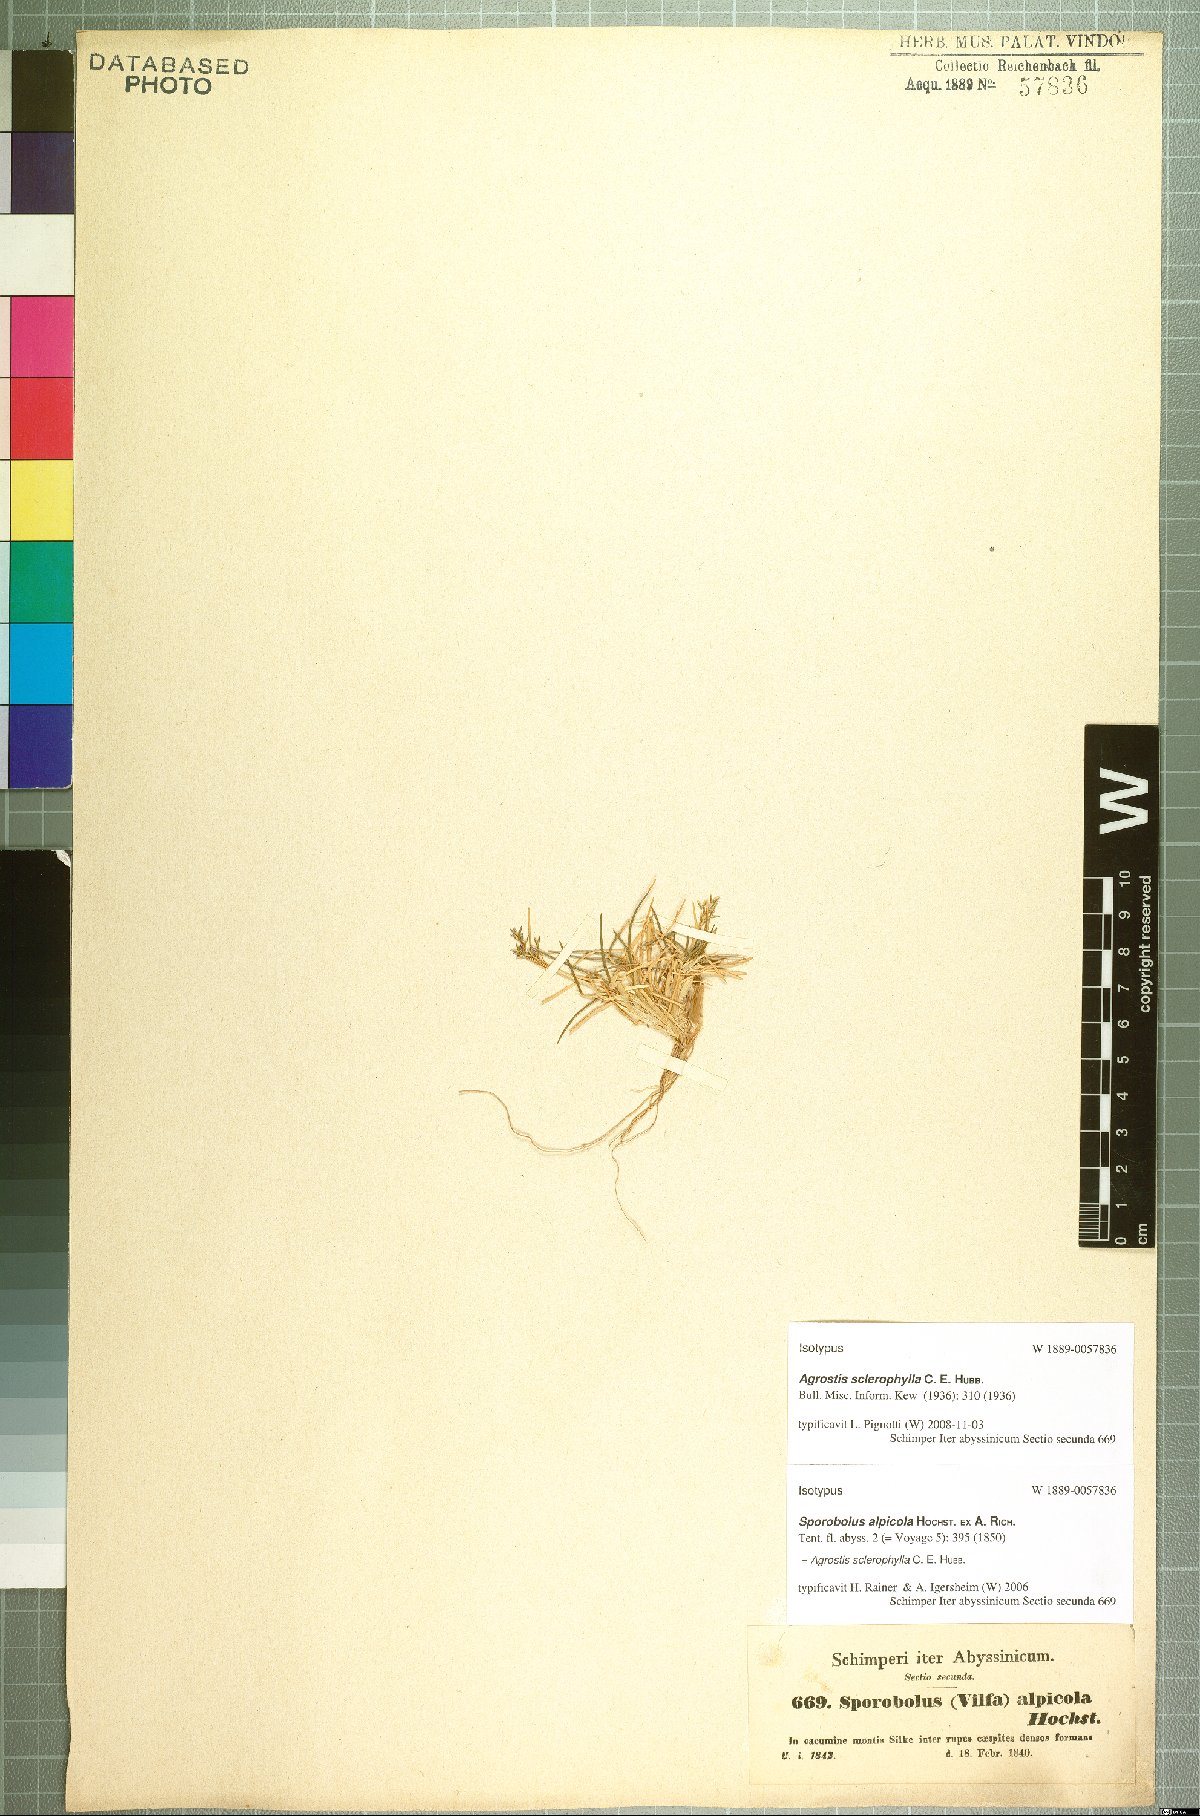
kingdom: Plantae
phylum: Tracheophyta
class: Liliopsida
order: Poales
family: Poaceae
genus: Agrostis
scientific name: Agrostis sclerophylla
